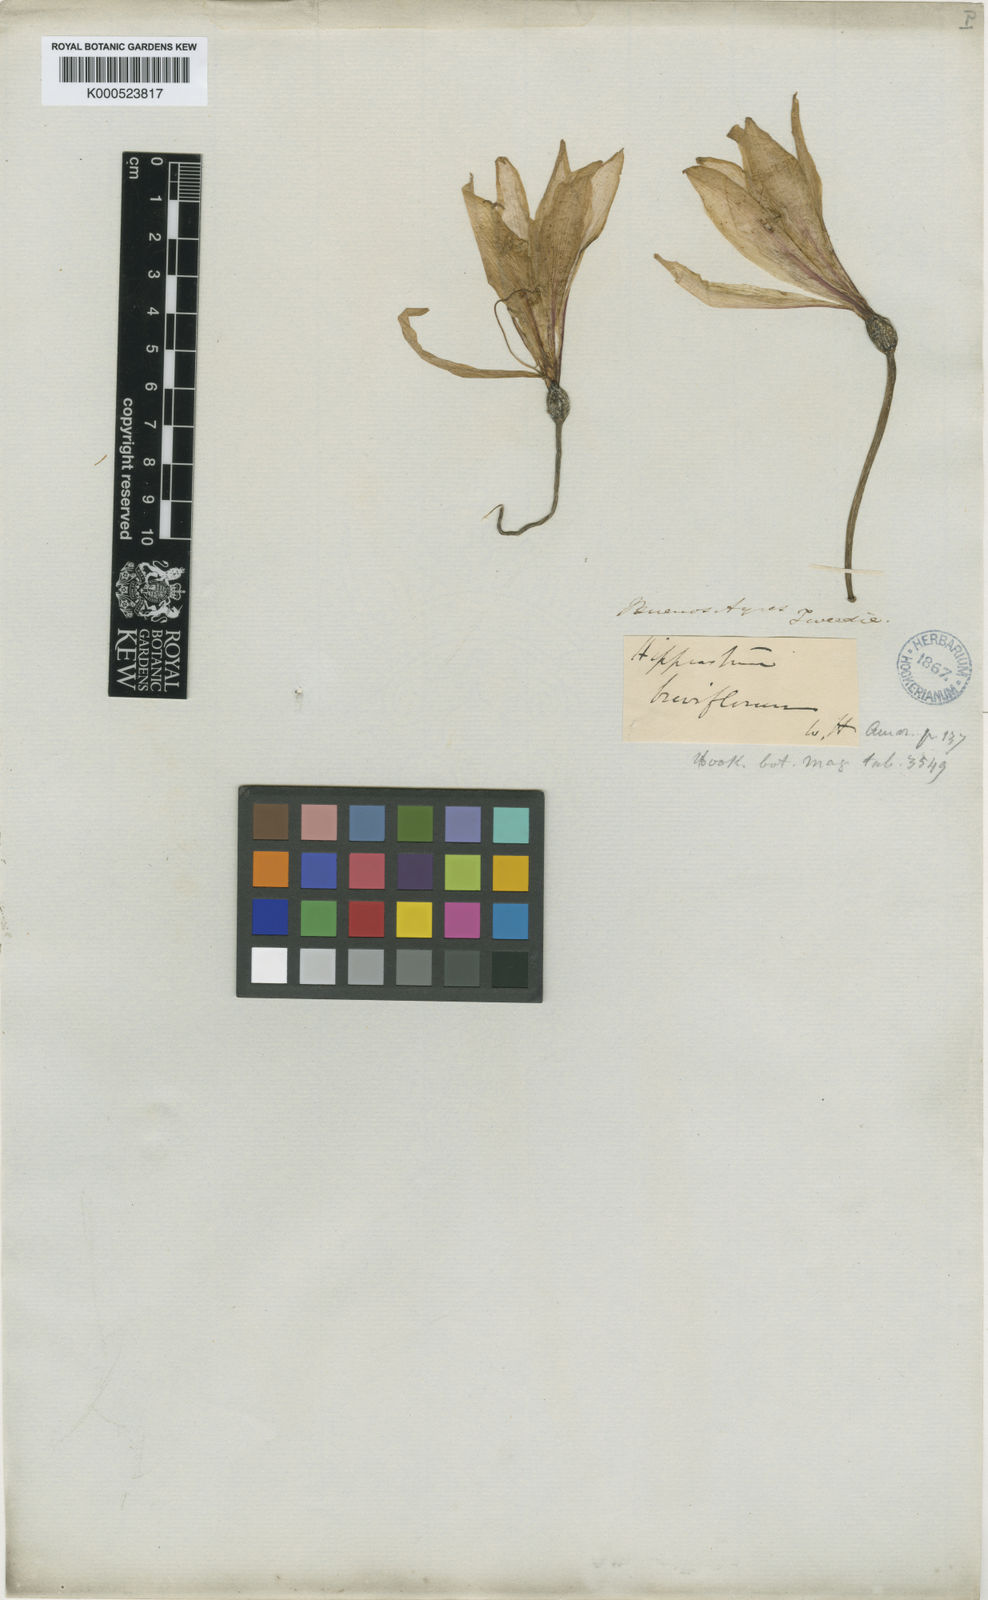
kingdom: Plantae
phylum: Tracheophyta
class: Liliopsida
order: Asparagales
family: Amaryllidaceae
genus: Hippeastrum
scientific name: Hippeastrum breviflorum
